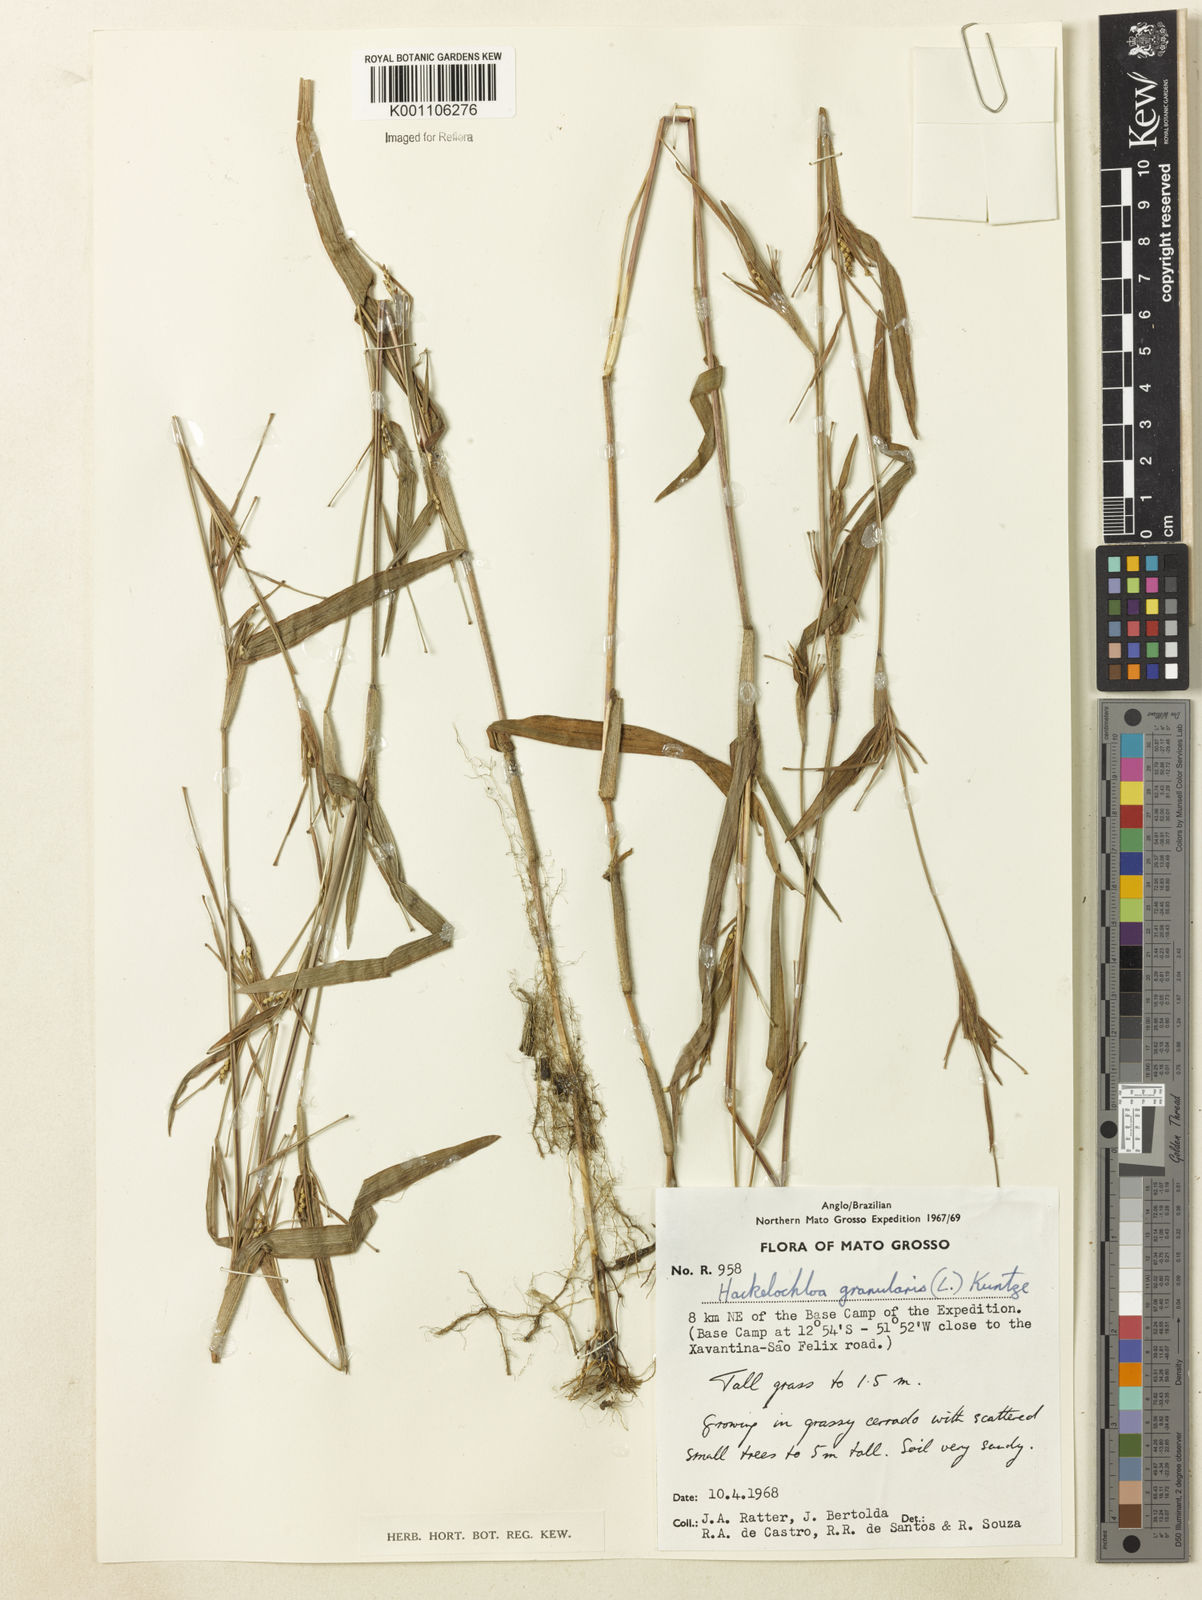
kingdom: Plantae
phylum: Tracheophyta
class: Liliopsida
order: Poales
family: Poaceae
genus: Hackelochloa
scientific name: Hackelochloa granularis
